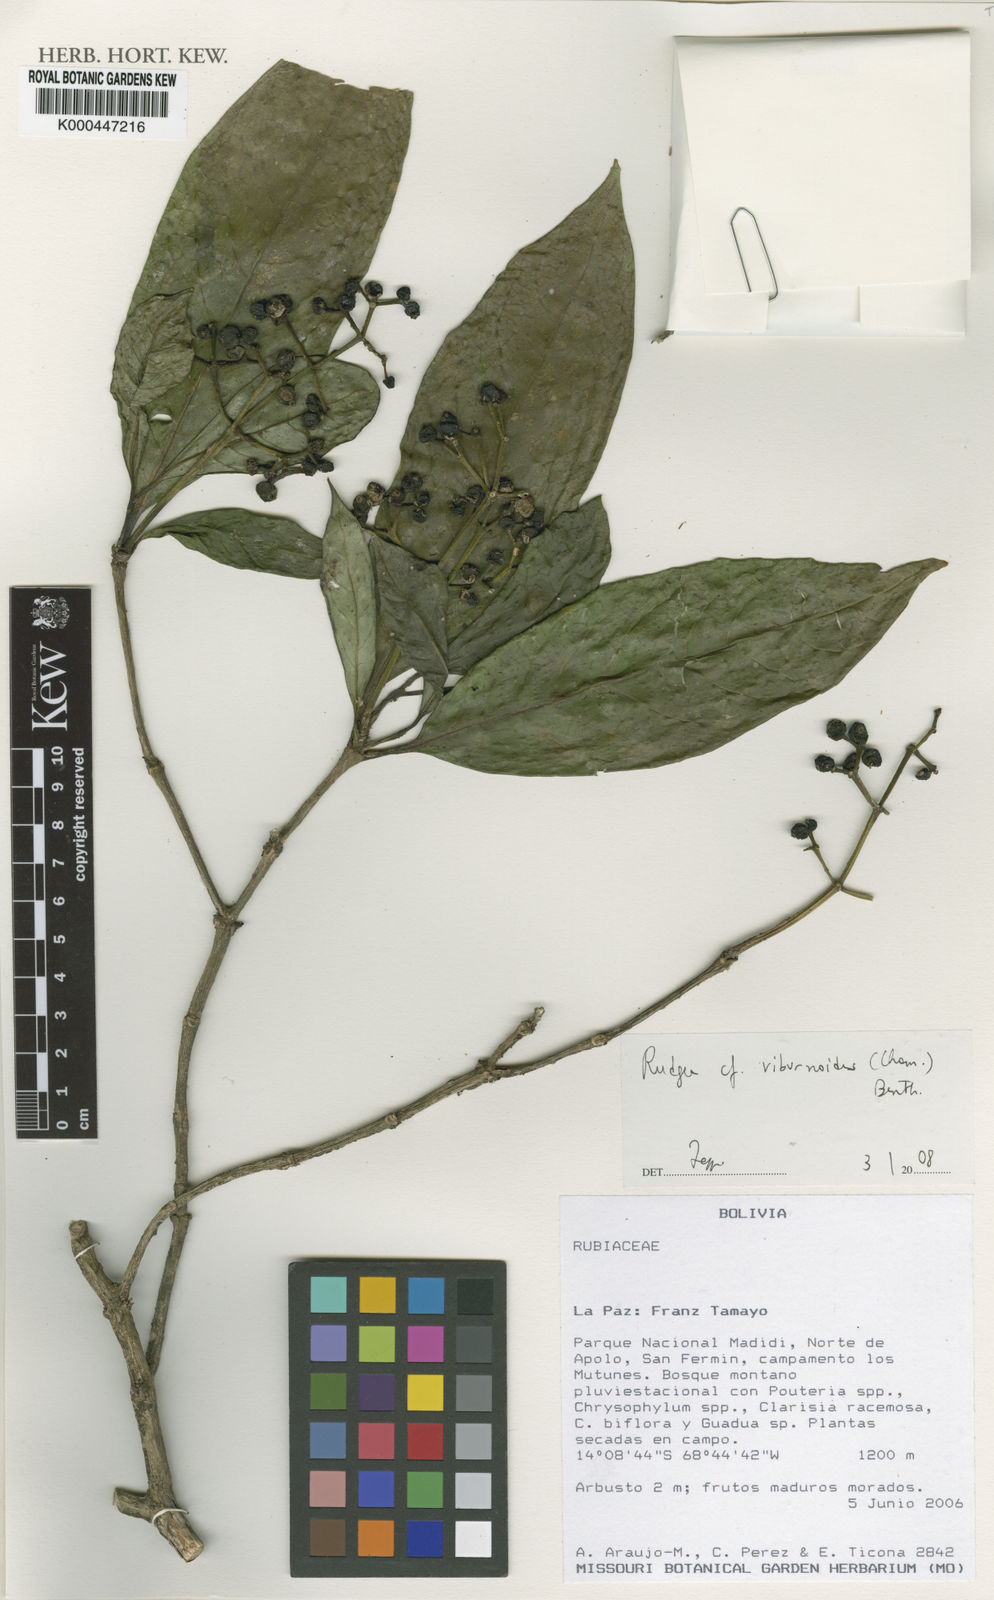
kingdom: Plantae
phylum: Tracheophyta
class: Magnoliopsida
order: Gentianales
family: Rubiaceae
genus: Rudgea
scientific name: Rudgea viburnoides
